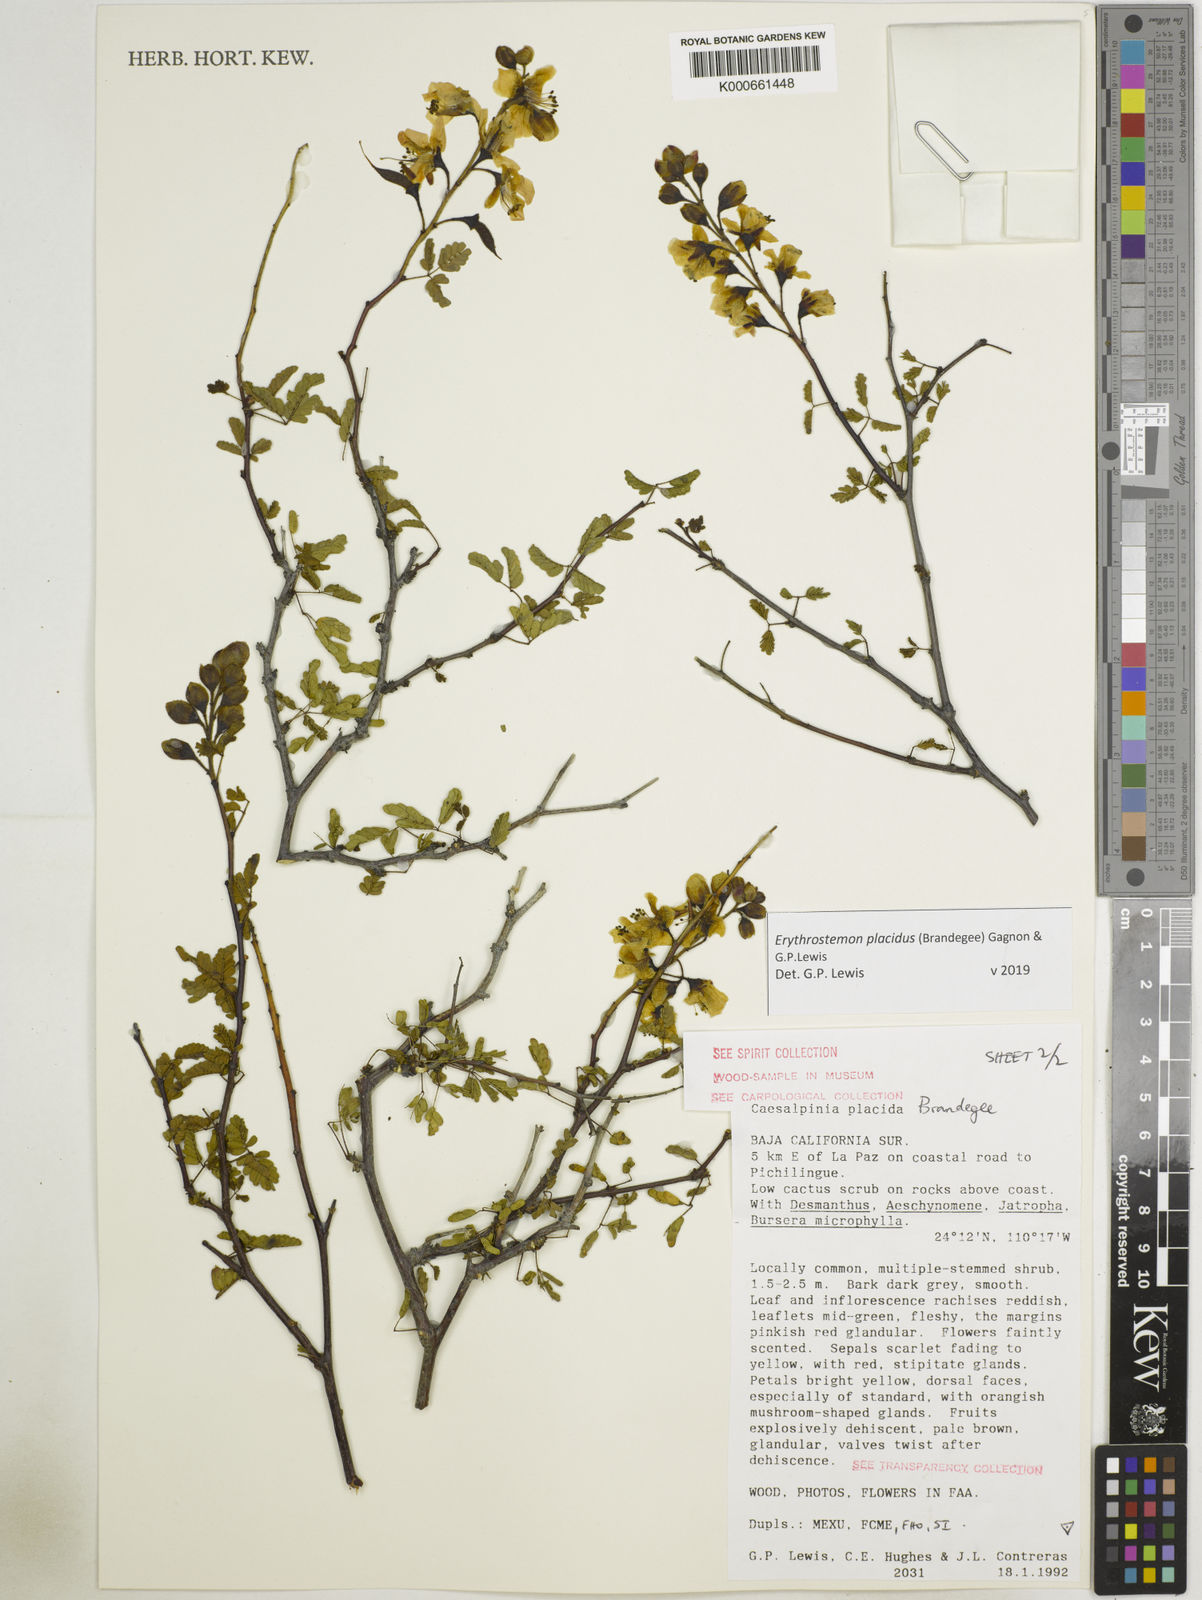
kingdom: Plantae
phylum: Tracheophyta
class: Magnoliopsida
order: Fabales
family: Fabaceae
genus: Erythrostemon
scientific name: Erythrostemon placidus
